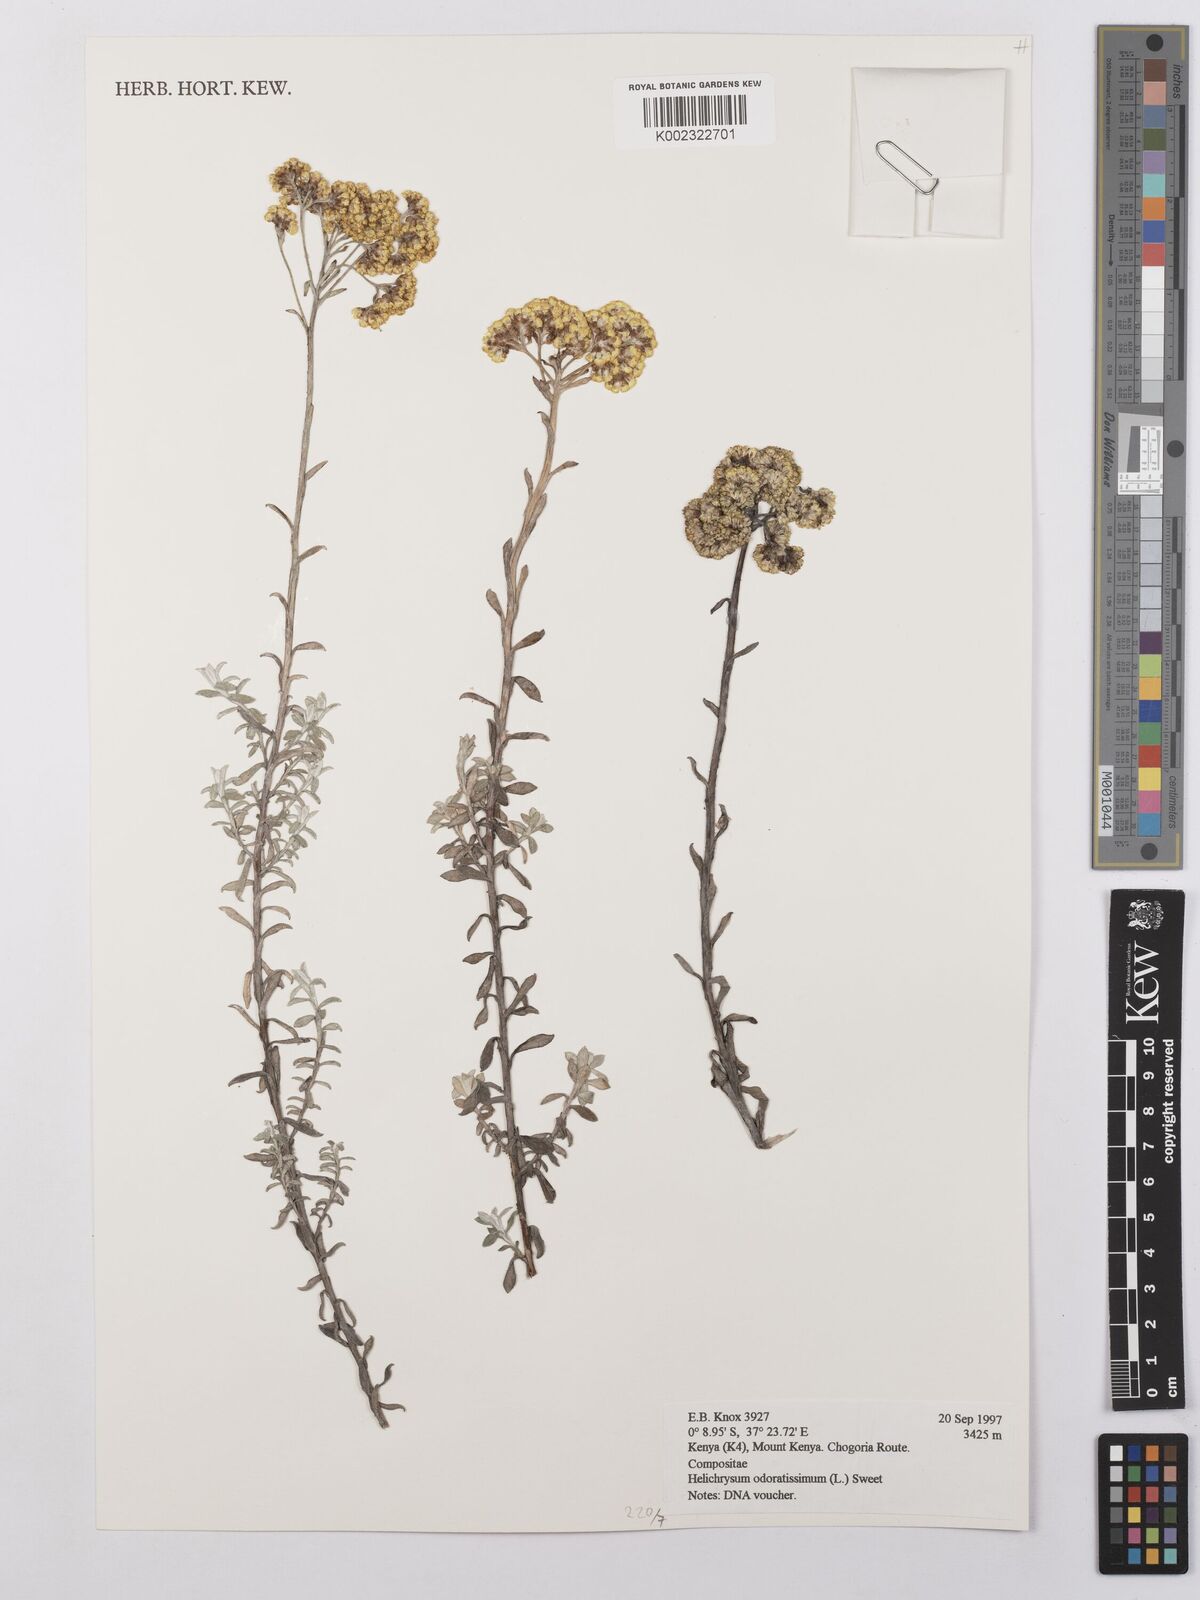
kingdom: Plantae
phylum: Tracheophyta
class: Magnoliopsida
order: Asterales
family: Asteraceae
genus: Helichrysum
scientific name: Helichrysum odoratissimum
